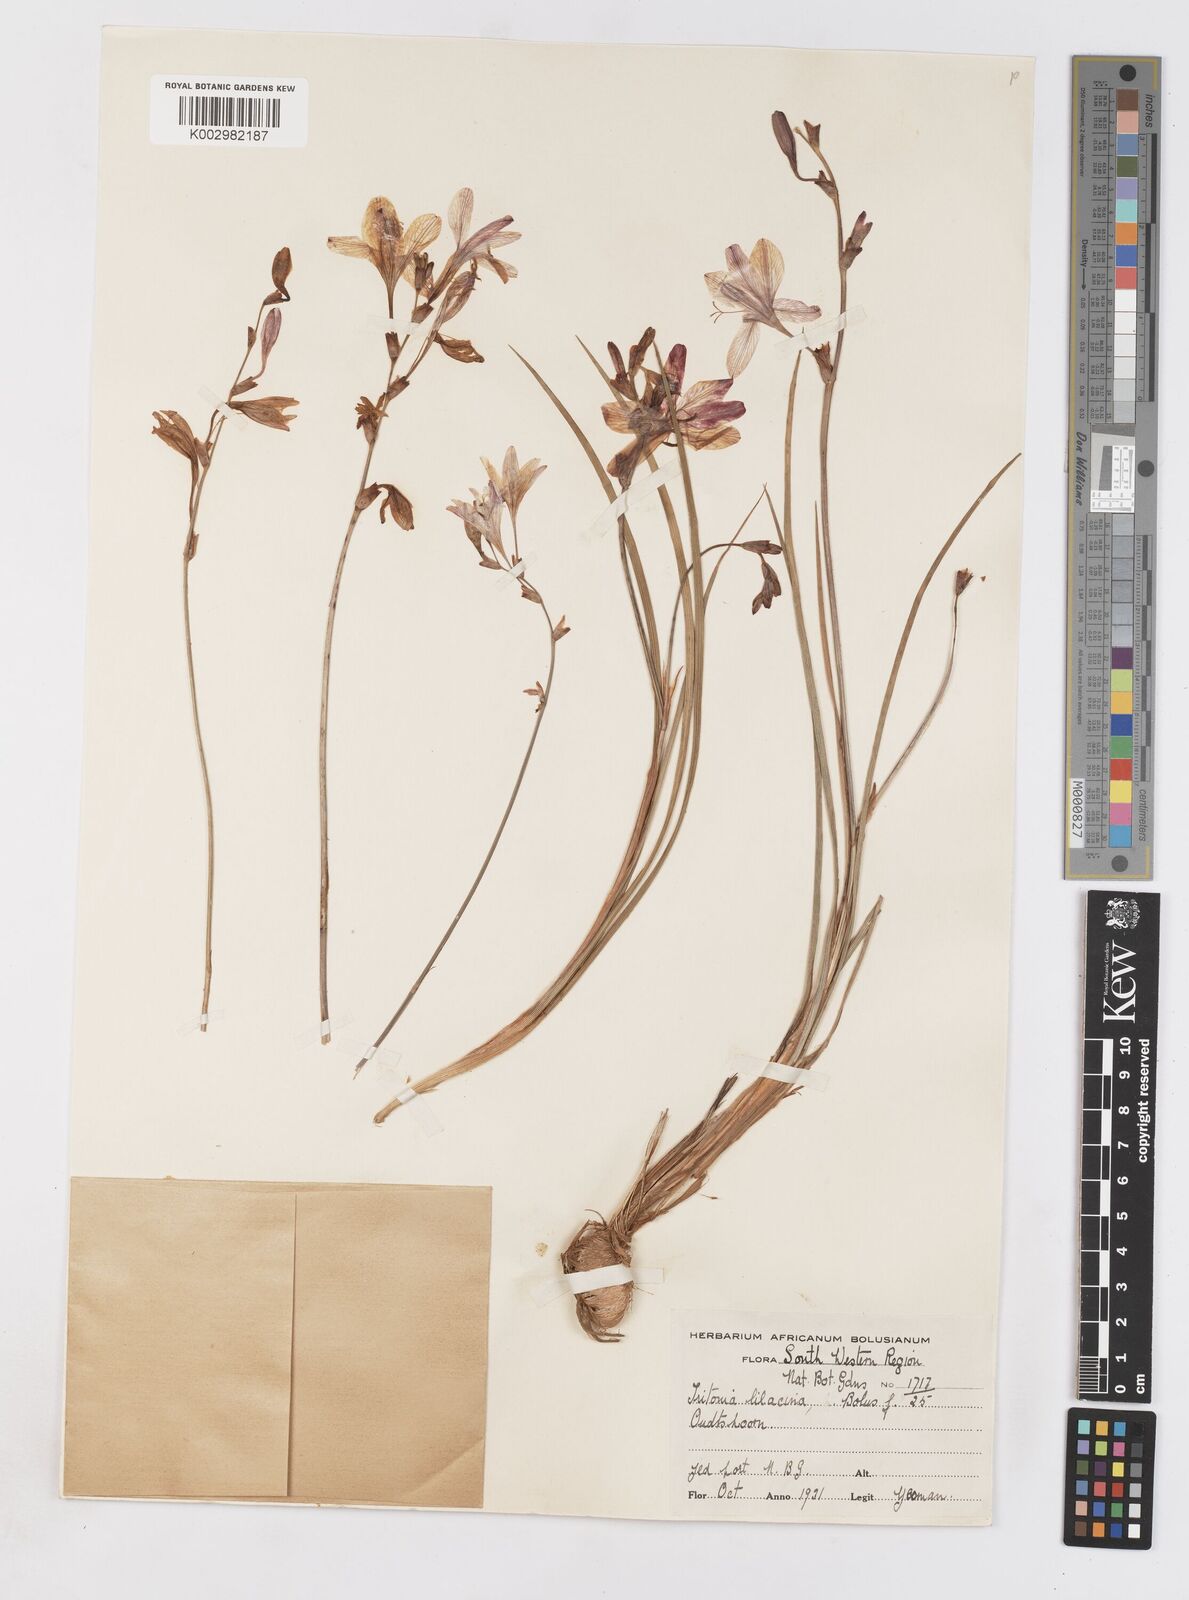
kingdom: Plantae
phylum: Tracheophyta
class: Liliopsida
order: Asparagales
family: Iridaceae
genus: Tritonia
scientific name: Tritonia bakeri
